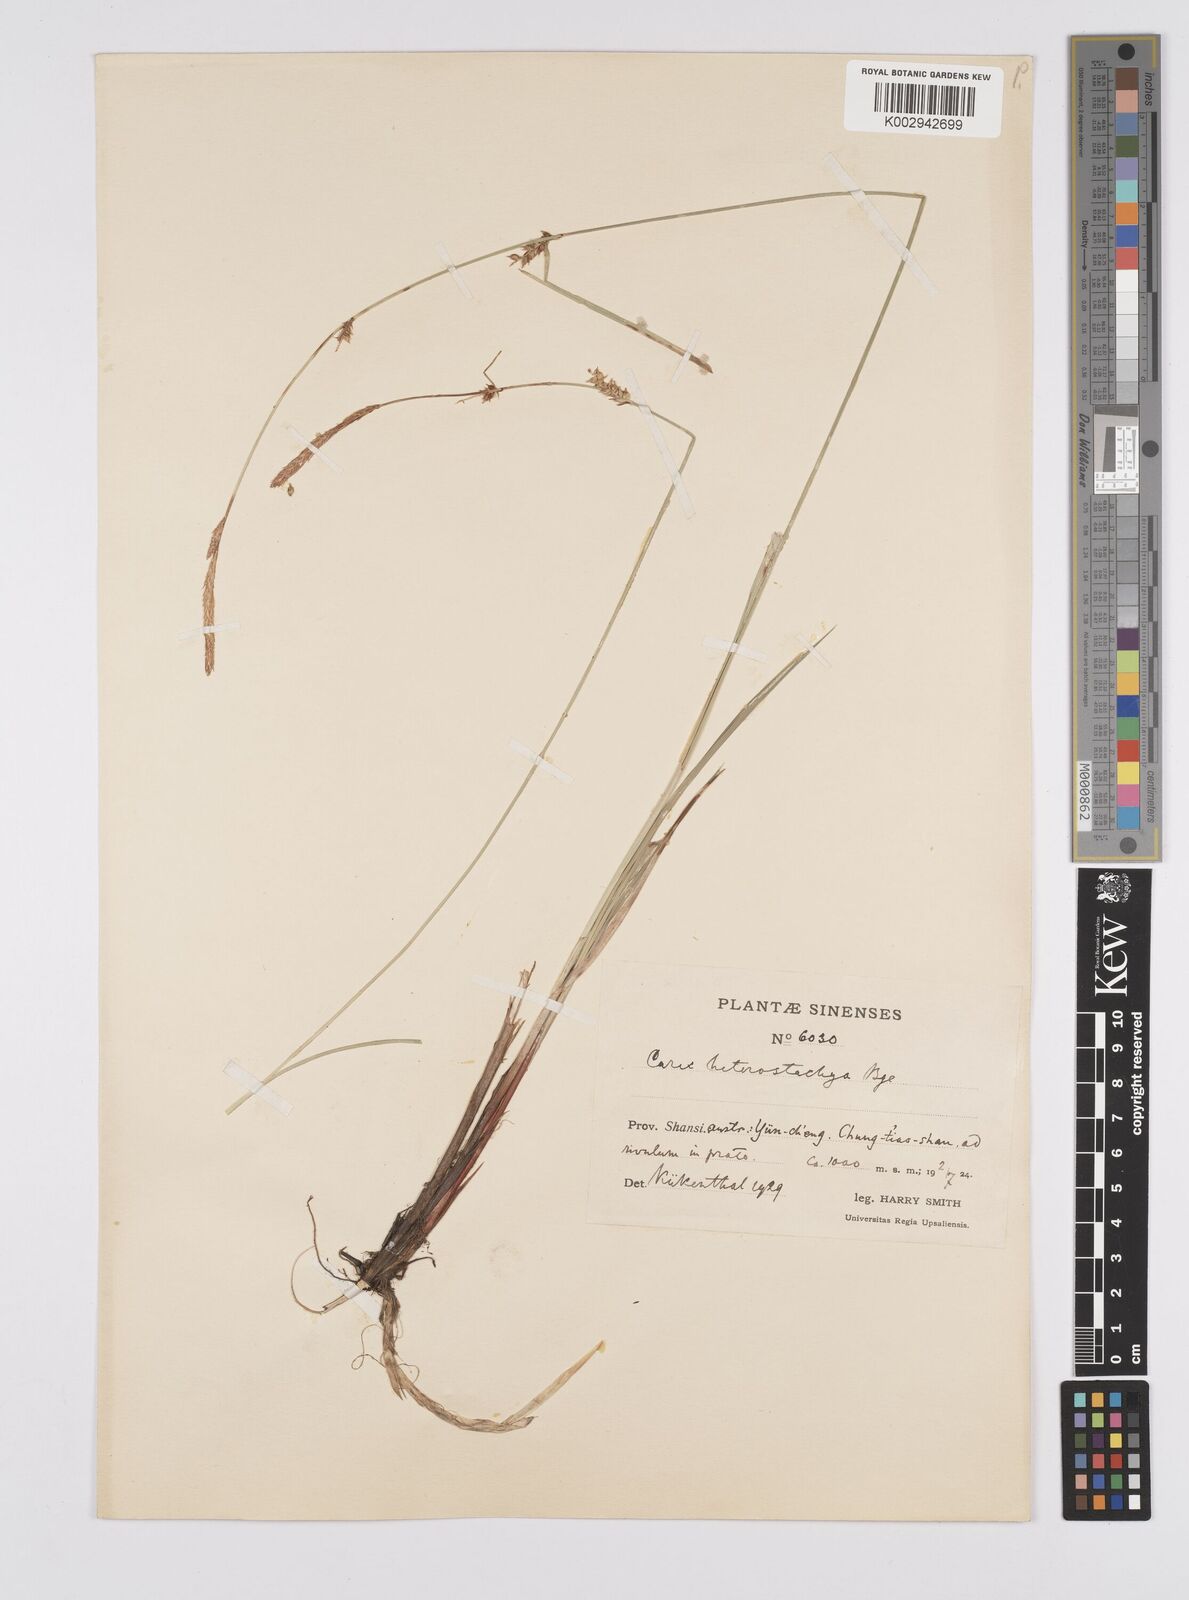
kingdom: Plantae
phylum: Tracheophyta
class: Liliopsida
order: Poales
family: Cyperaceae
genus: Carex
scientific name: Carex heterostachya
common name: Different-spike sedge
